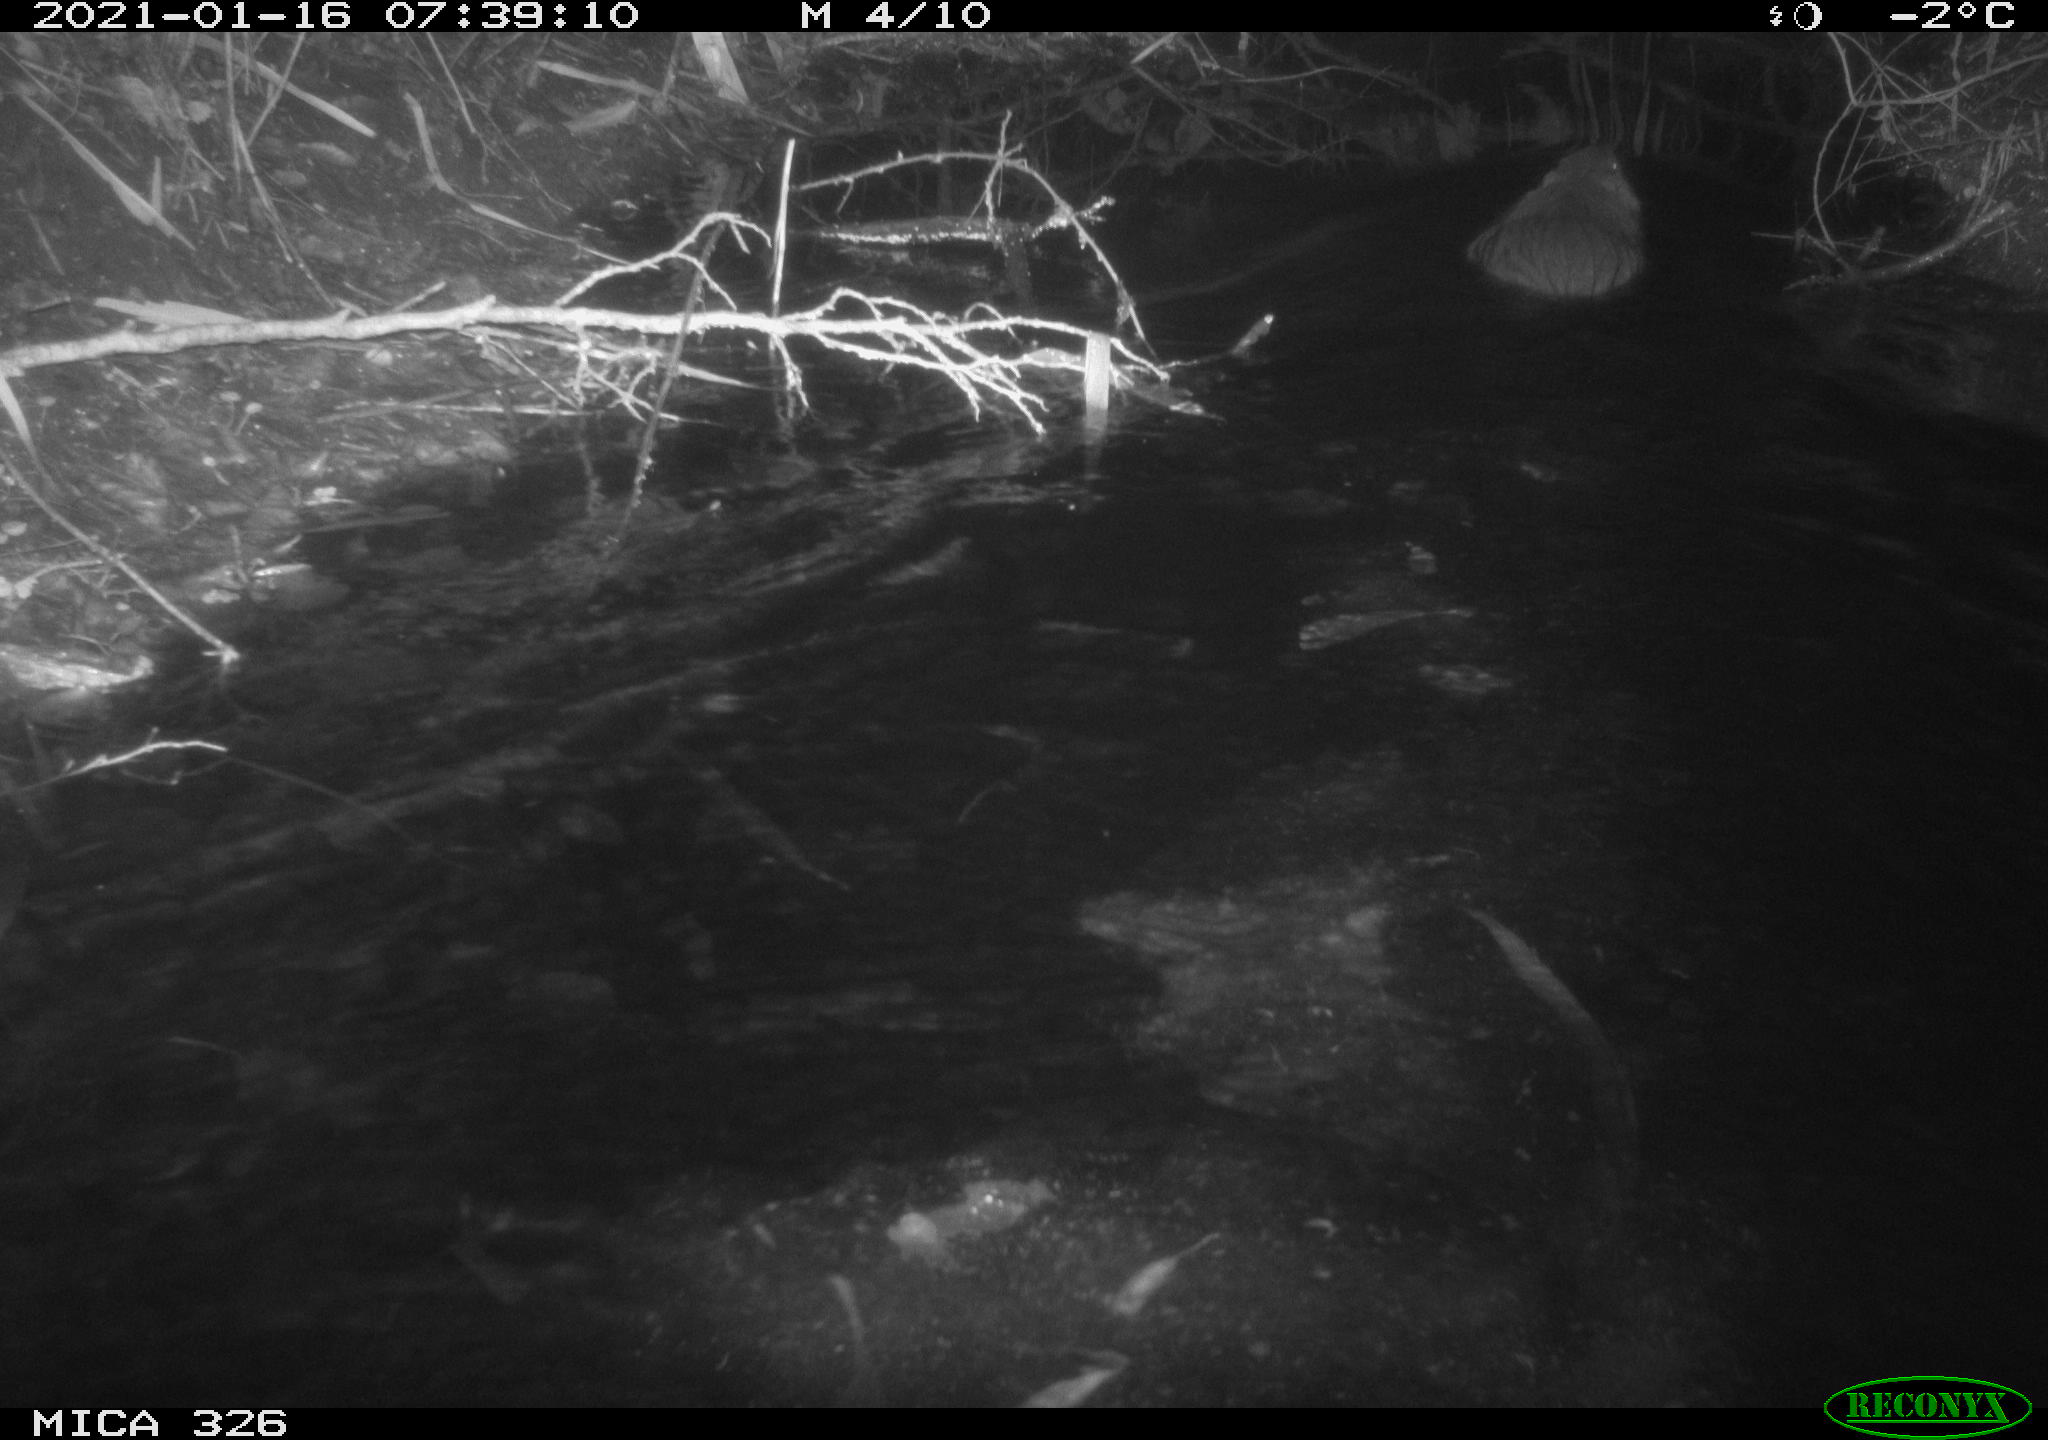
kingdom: Animalia
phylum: Chordata
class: Mammalia
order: Rodentia
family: Myocastoridae
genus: Myocastor
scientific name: Myocastor coypus
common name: Coypu
